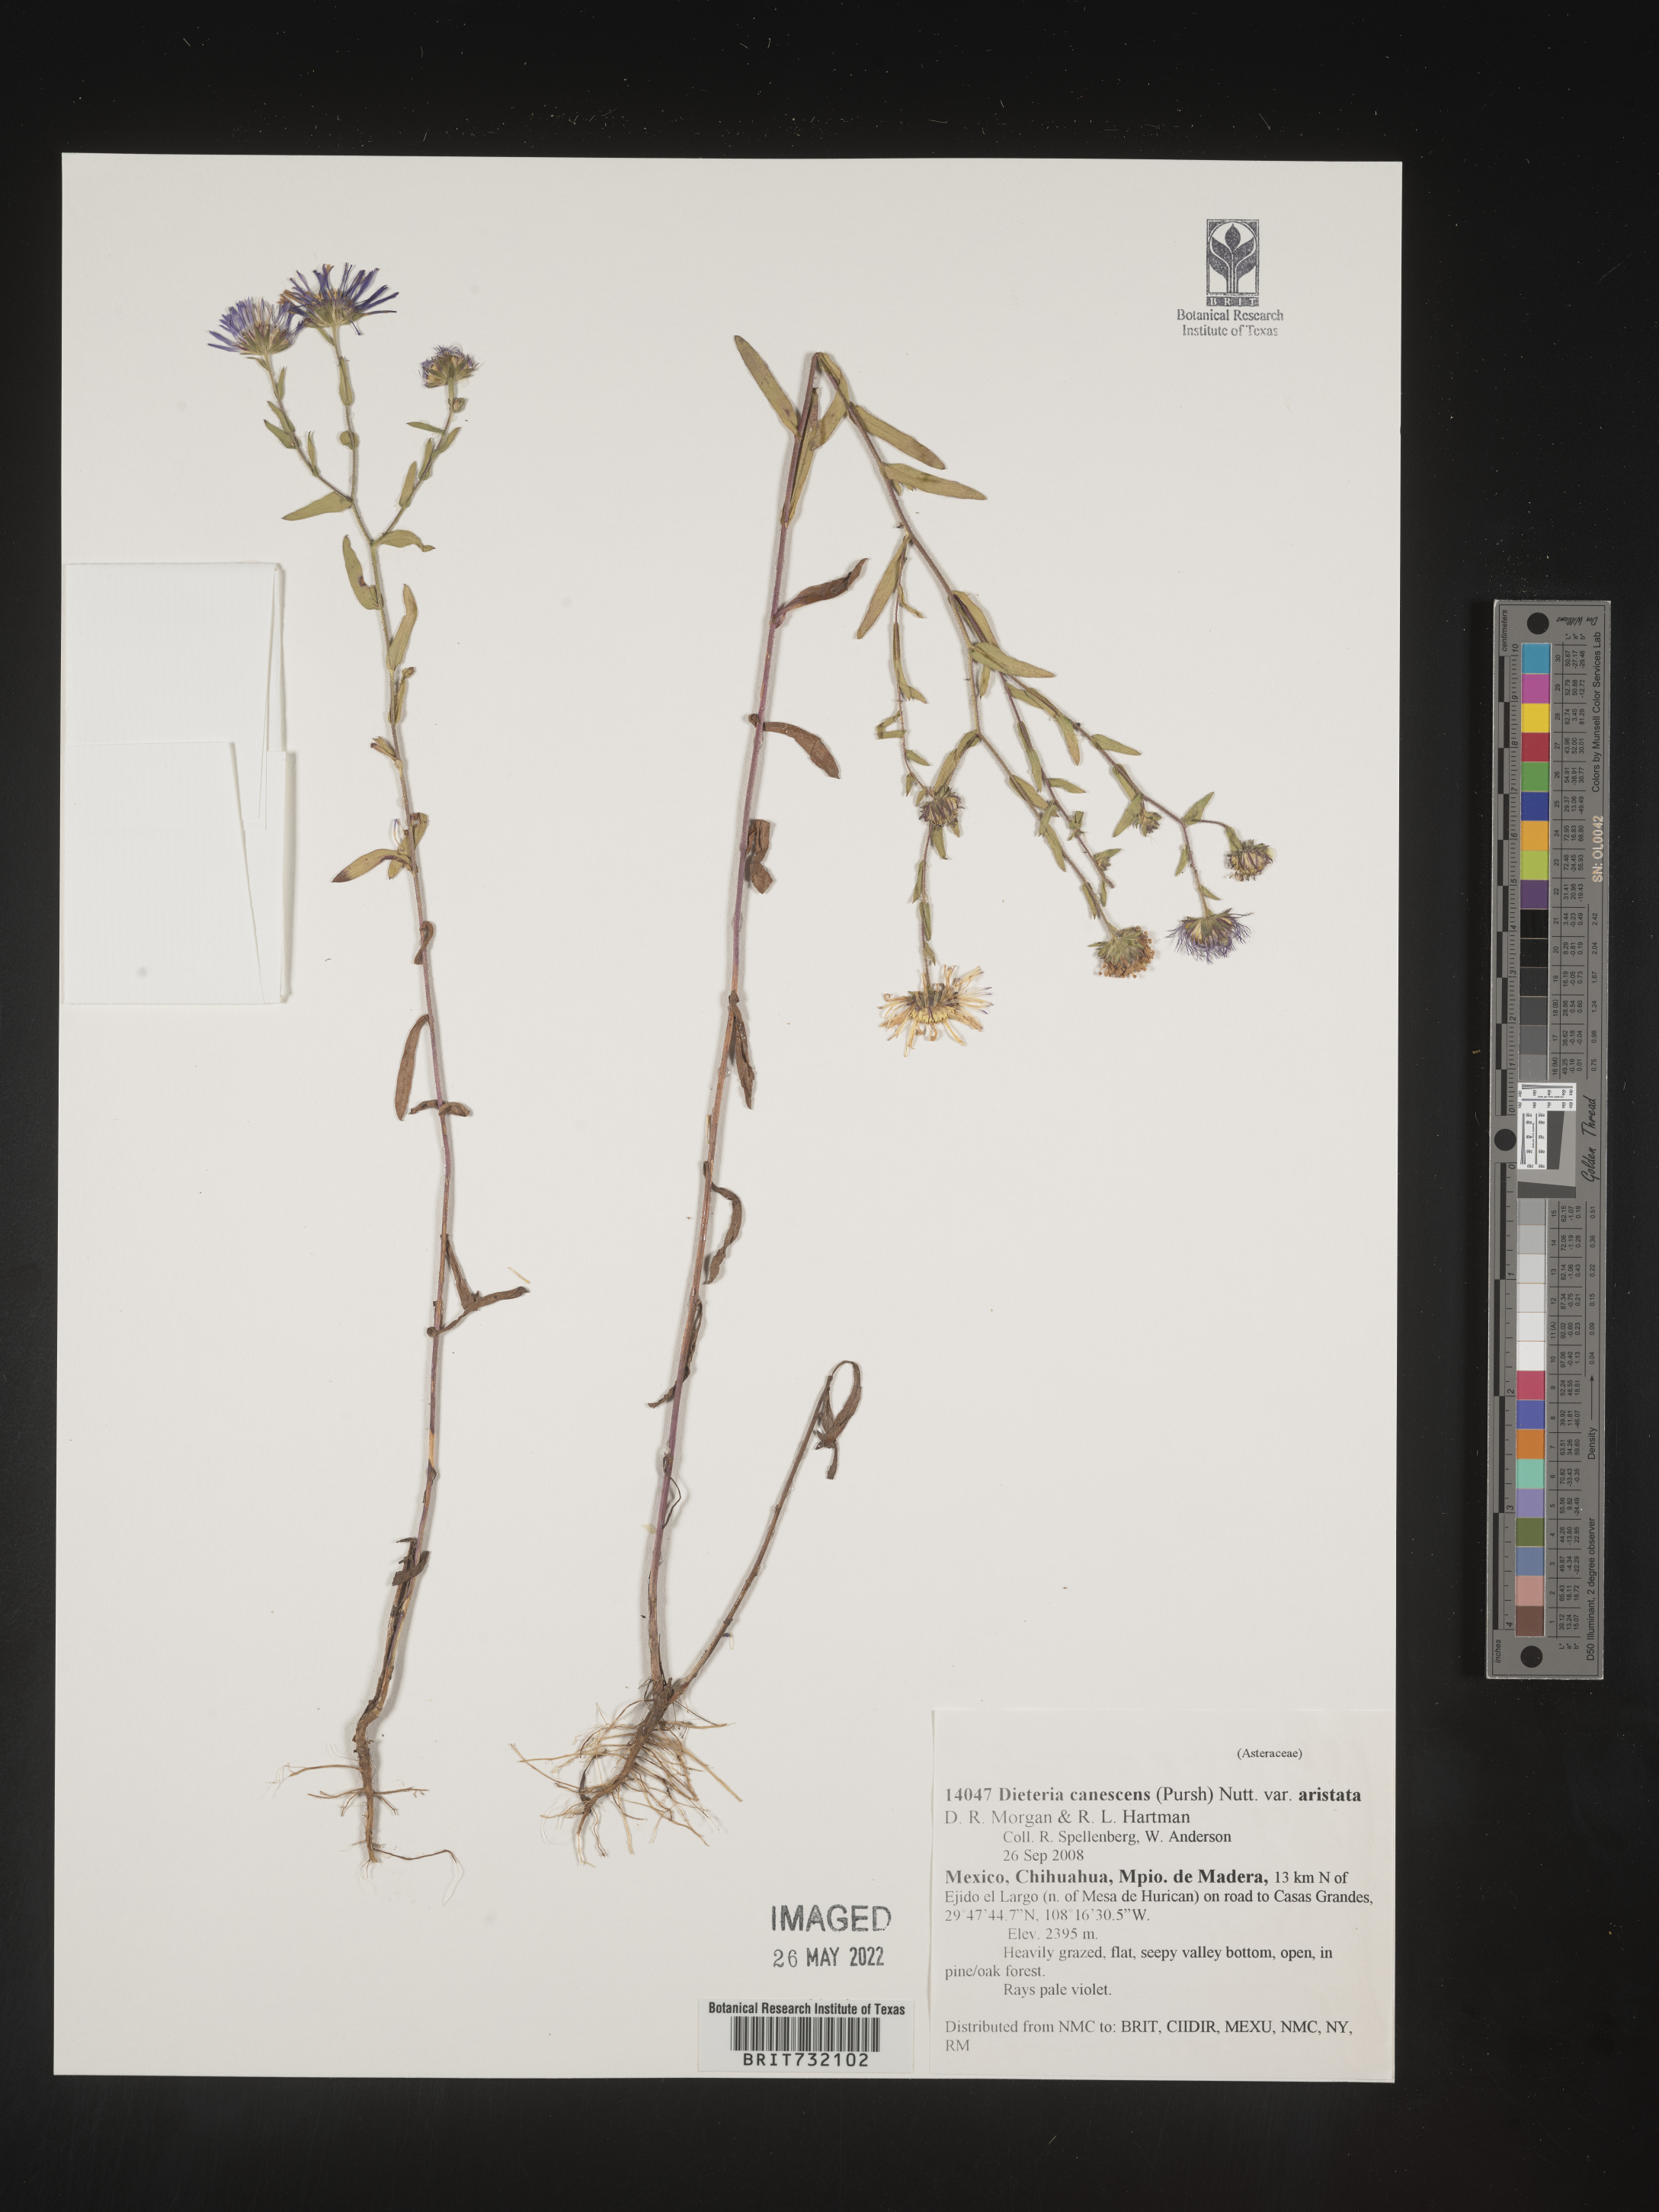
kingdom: Plantae
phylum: Tracheophyta
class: Magnoliopsida
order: Asterales
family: Asteraceae
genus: Dieteria
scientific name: Dieteria canescens
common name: Hoary-aster
